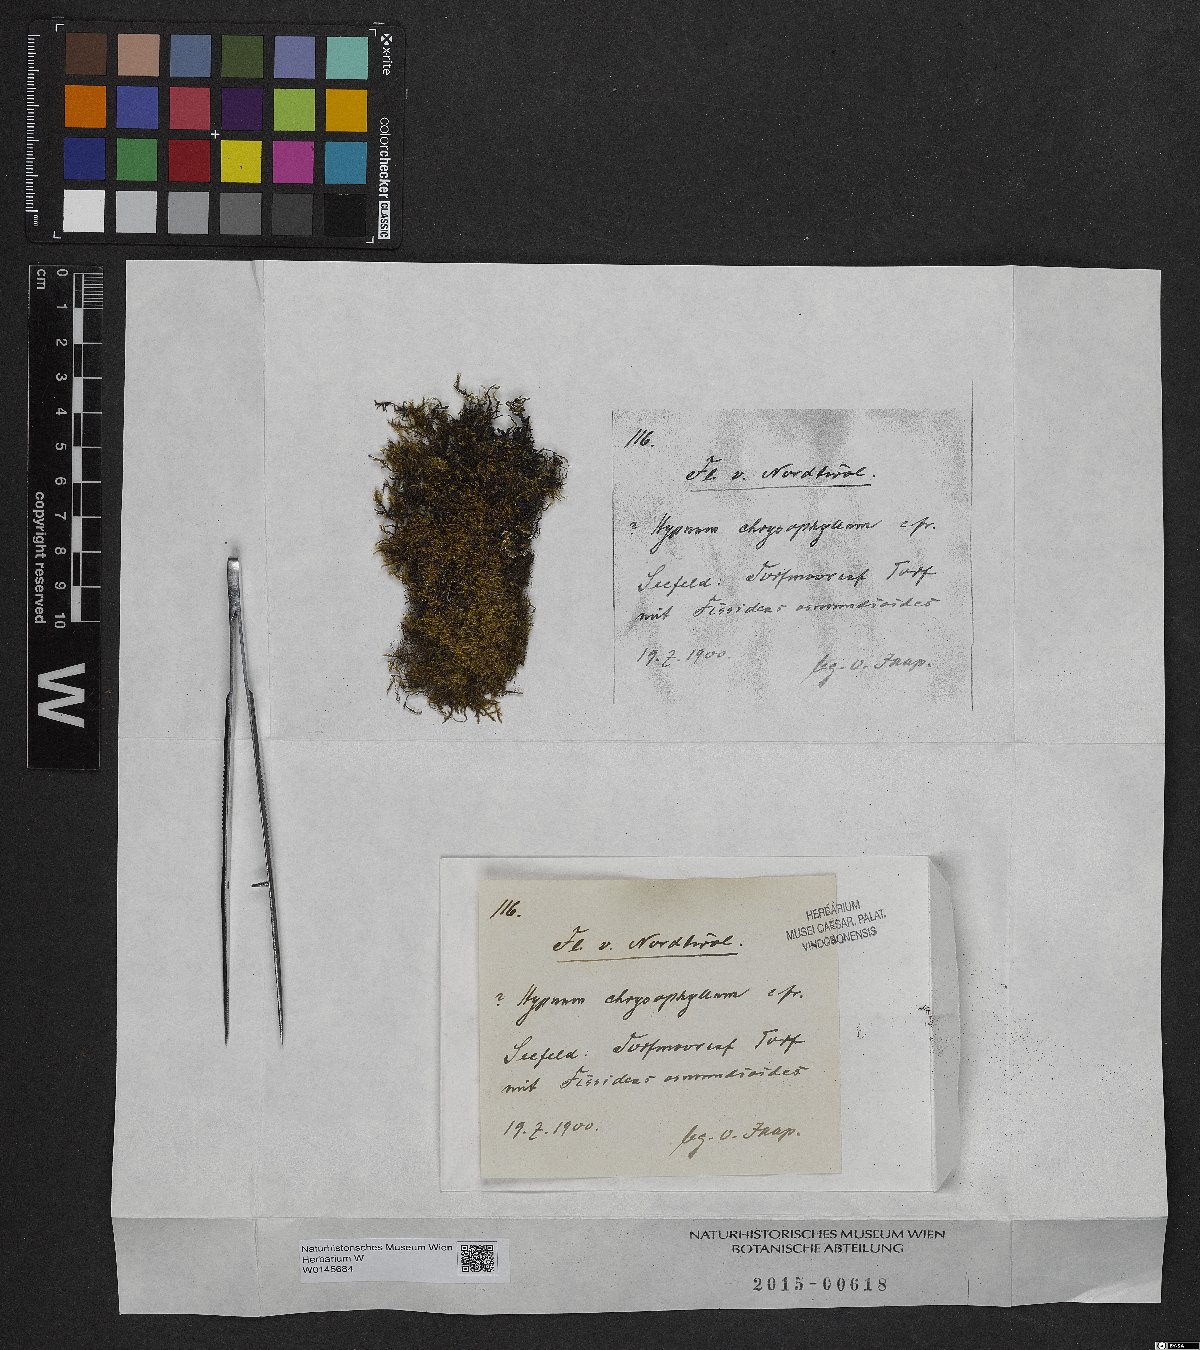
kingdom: Plantae
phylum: Bryophyta
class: Bryopsida
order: Hypnales
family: Amblystegiaceae
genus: Campylium
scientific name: Campylium chrysophyllum
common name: Goldenleaf campylium moss
